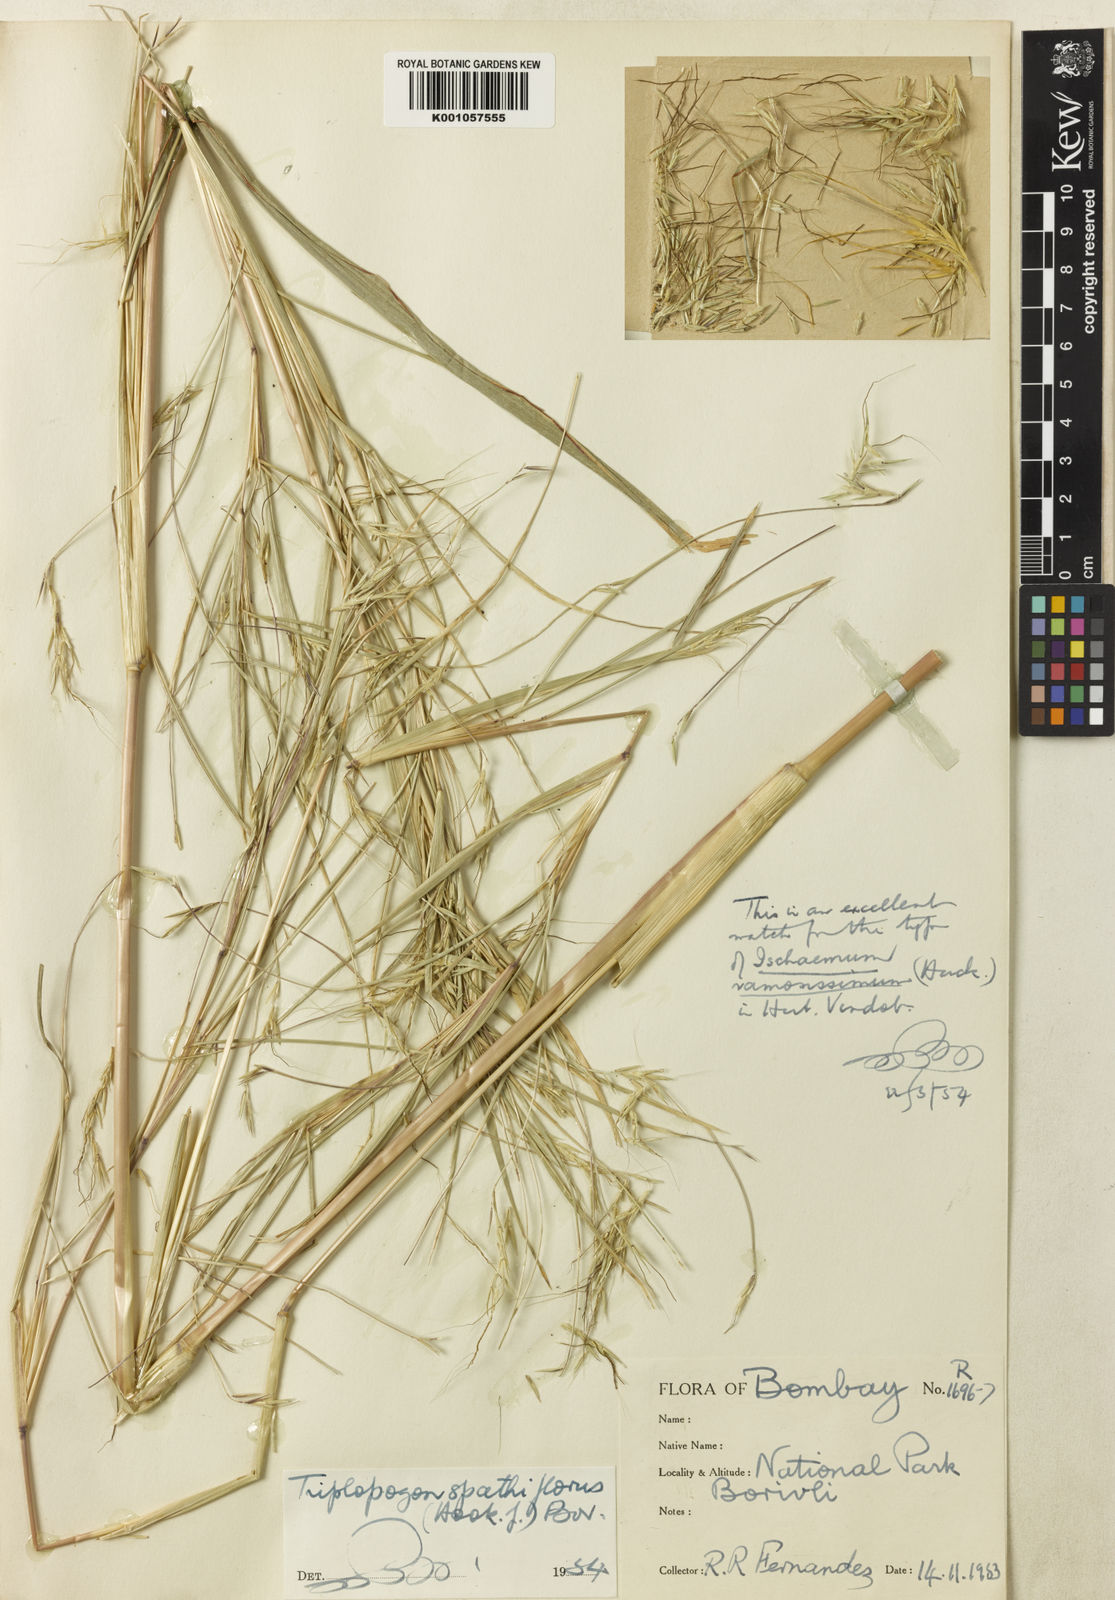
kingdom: Plantae
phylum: Tracheophyta
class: Liliopsida
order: Poales
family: Poaceae
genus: Triplopogon
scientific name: Triplopogon ramosissimus
